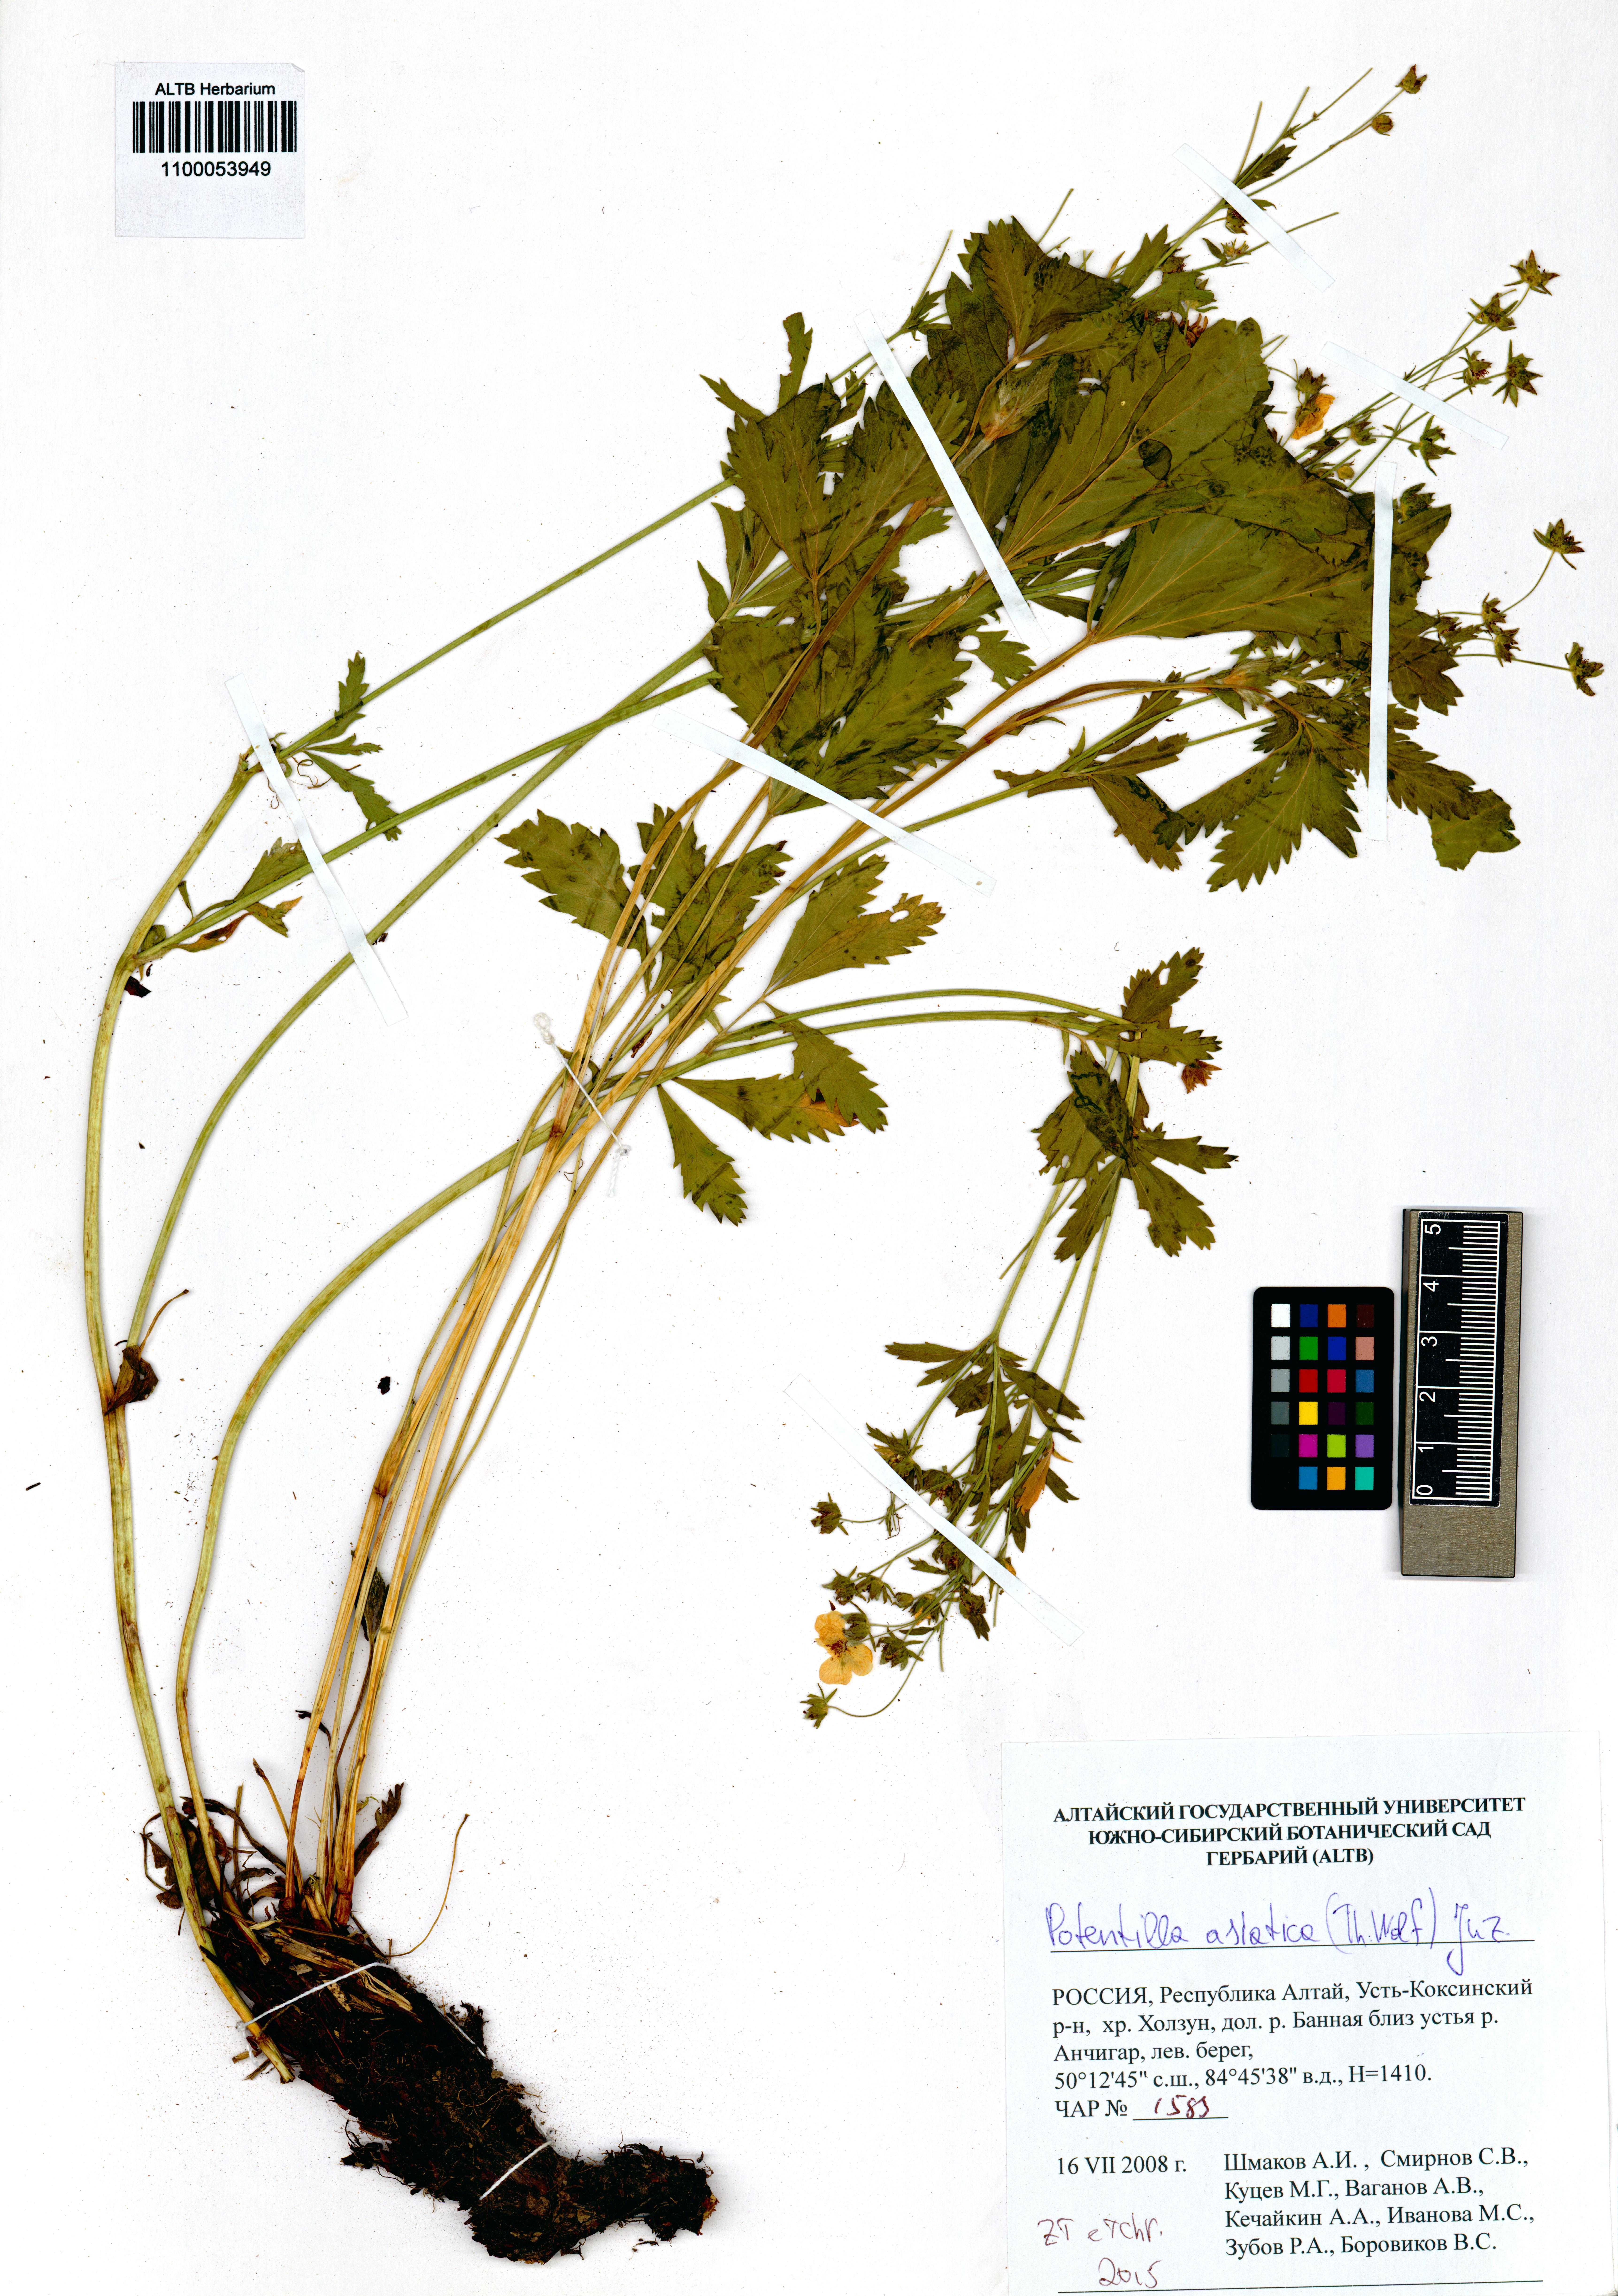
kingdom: Plantae
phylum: Tracheophyta
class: Magnoliopsida
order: Rosales
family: Rosaceae
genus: Potentilla
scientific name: Potentilla asiatica
